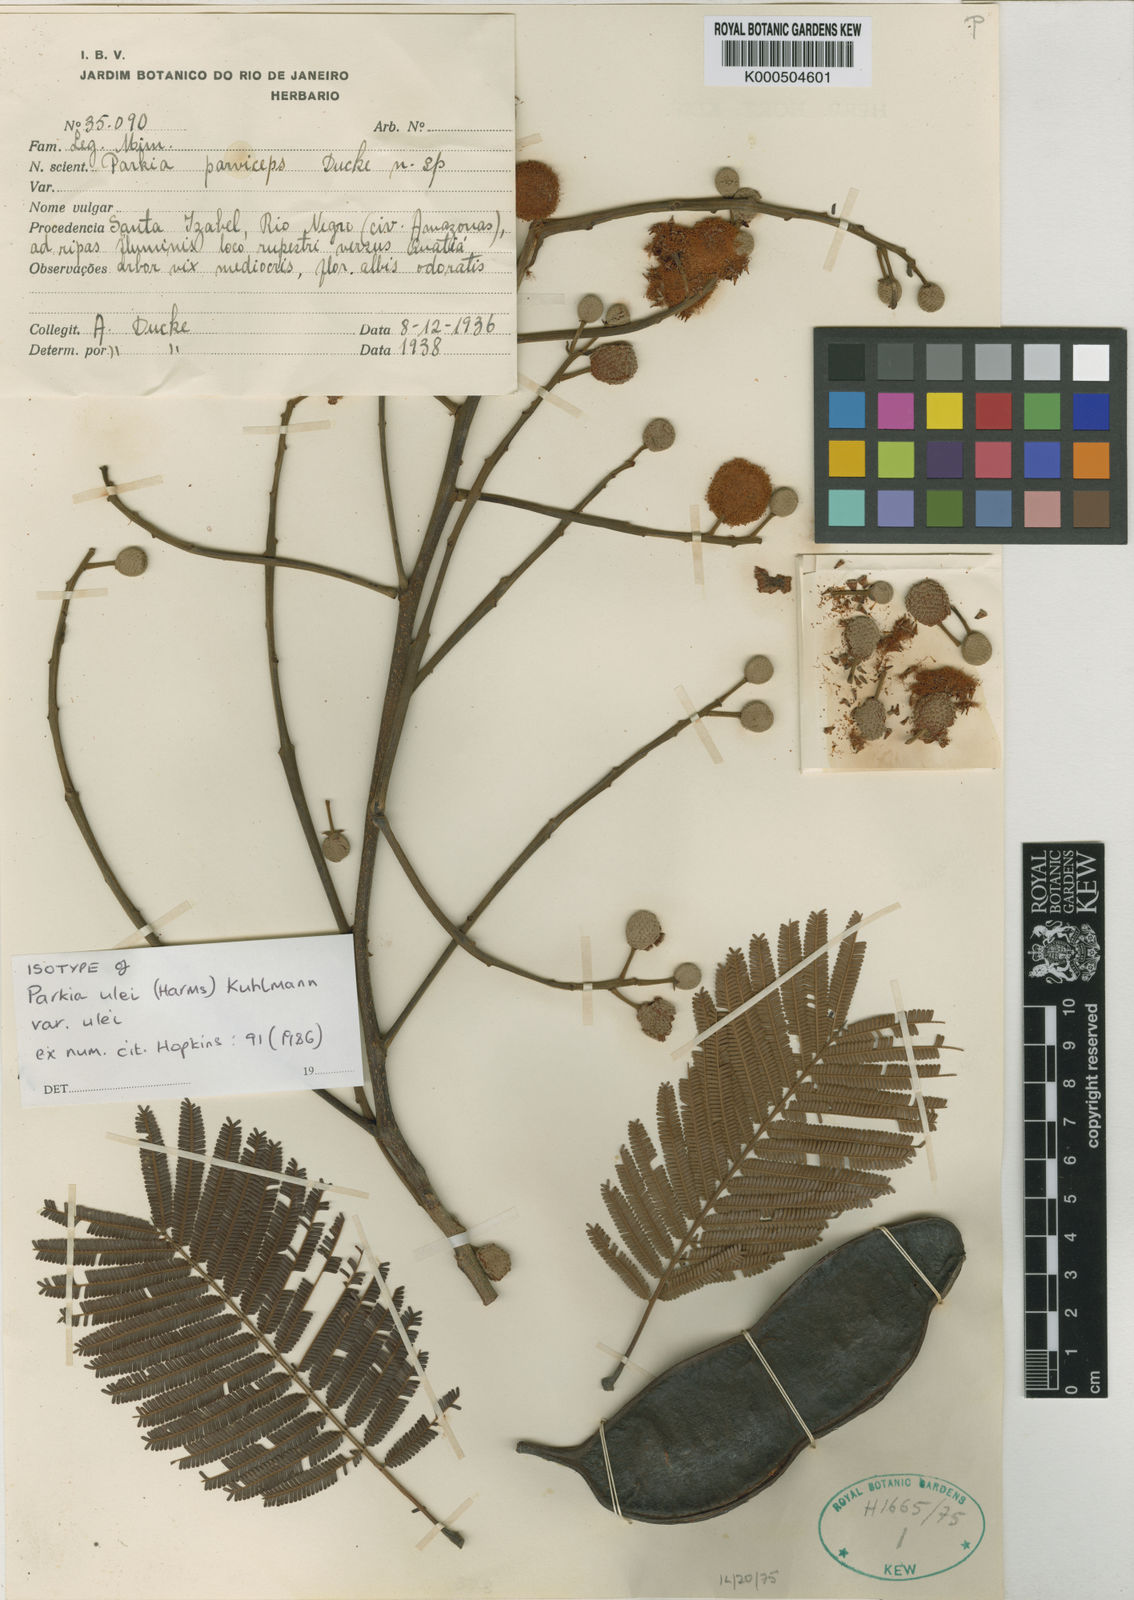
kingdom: Plantae
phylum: Tracheophyta
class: Magnoliopsida
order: Fabales
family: Fabaceae
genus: Parkia
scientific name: Parkia ulei
